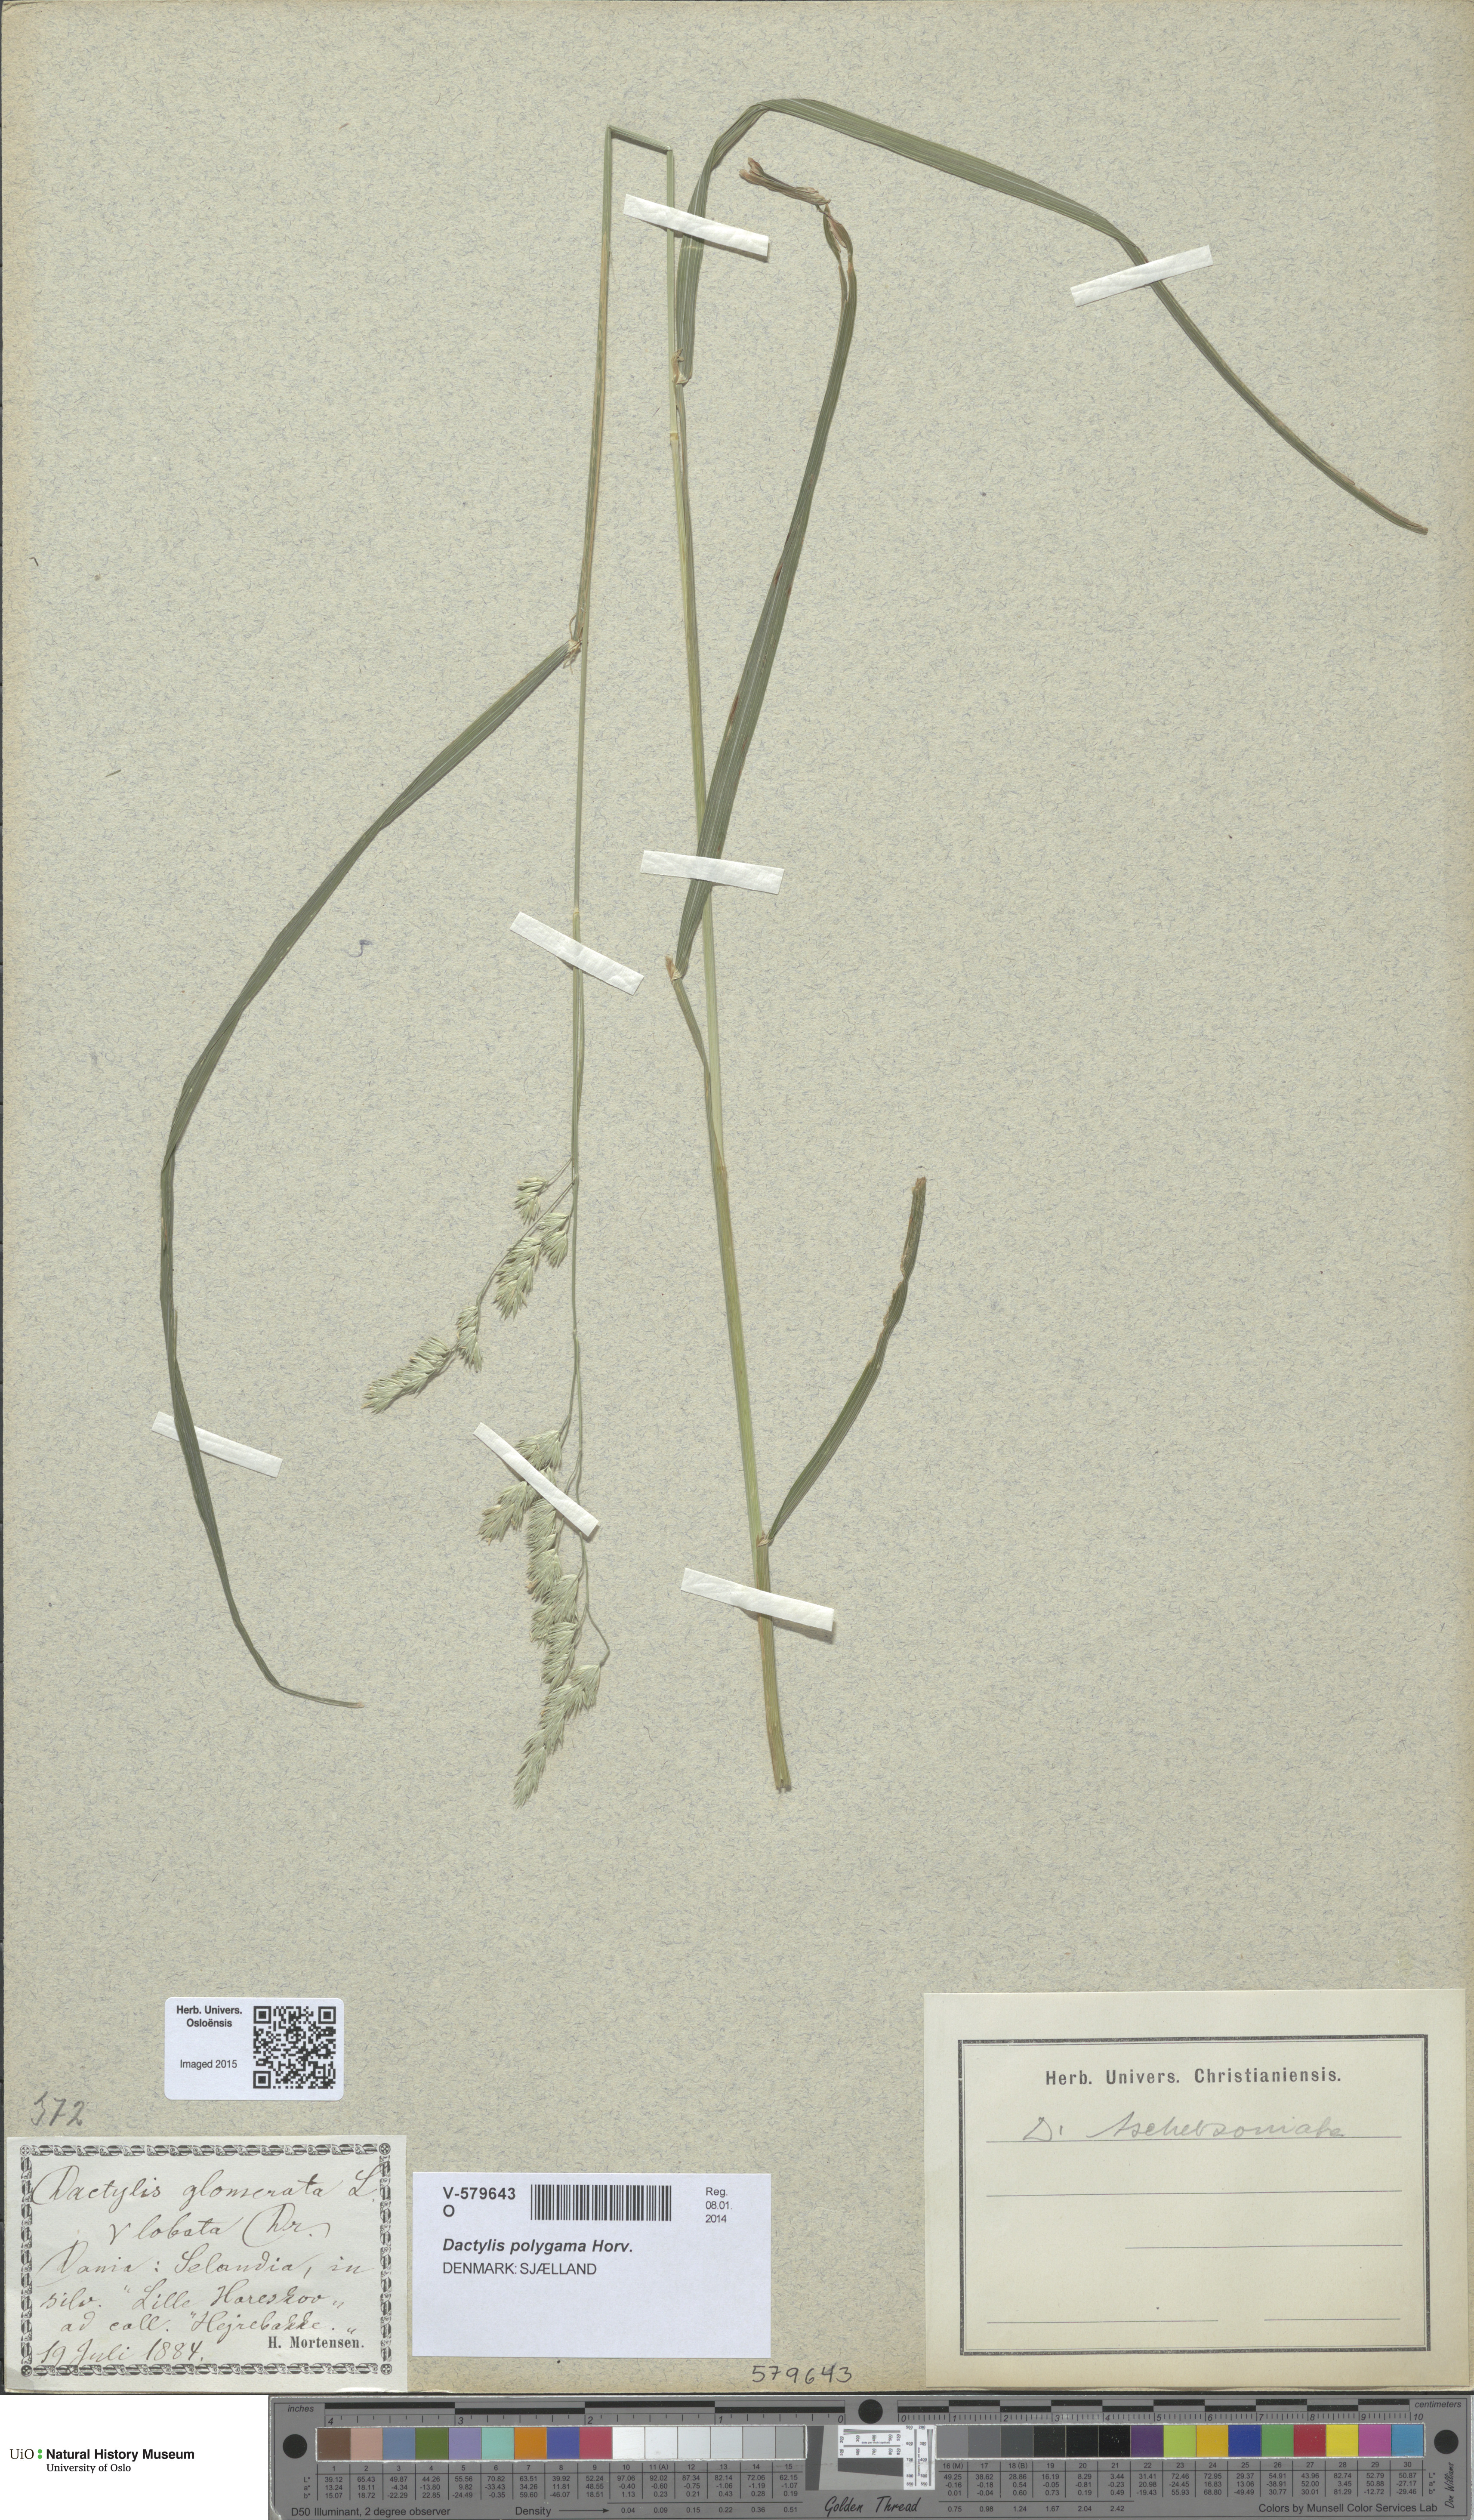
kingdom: Plantae
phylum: Tracheophyta
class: Liliopsida
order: Poales
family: Poaceae
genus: Dactylis
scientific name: Dactylis glomerata
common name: Orchardgrass
